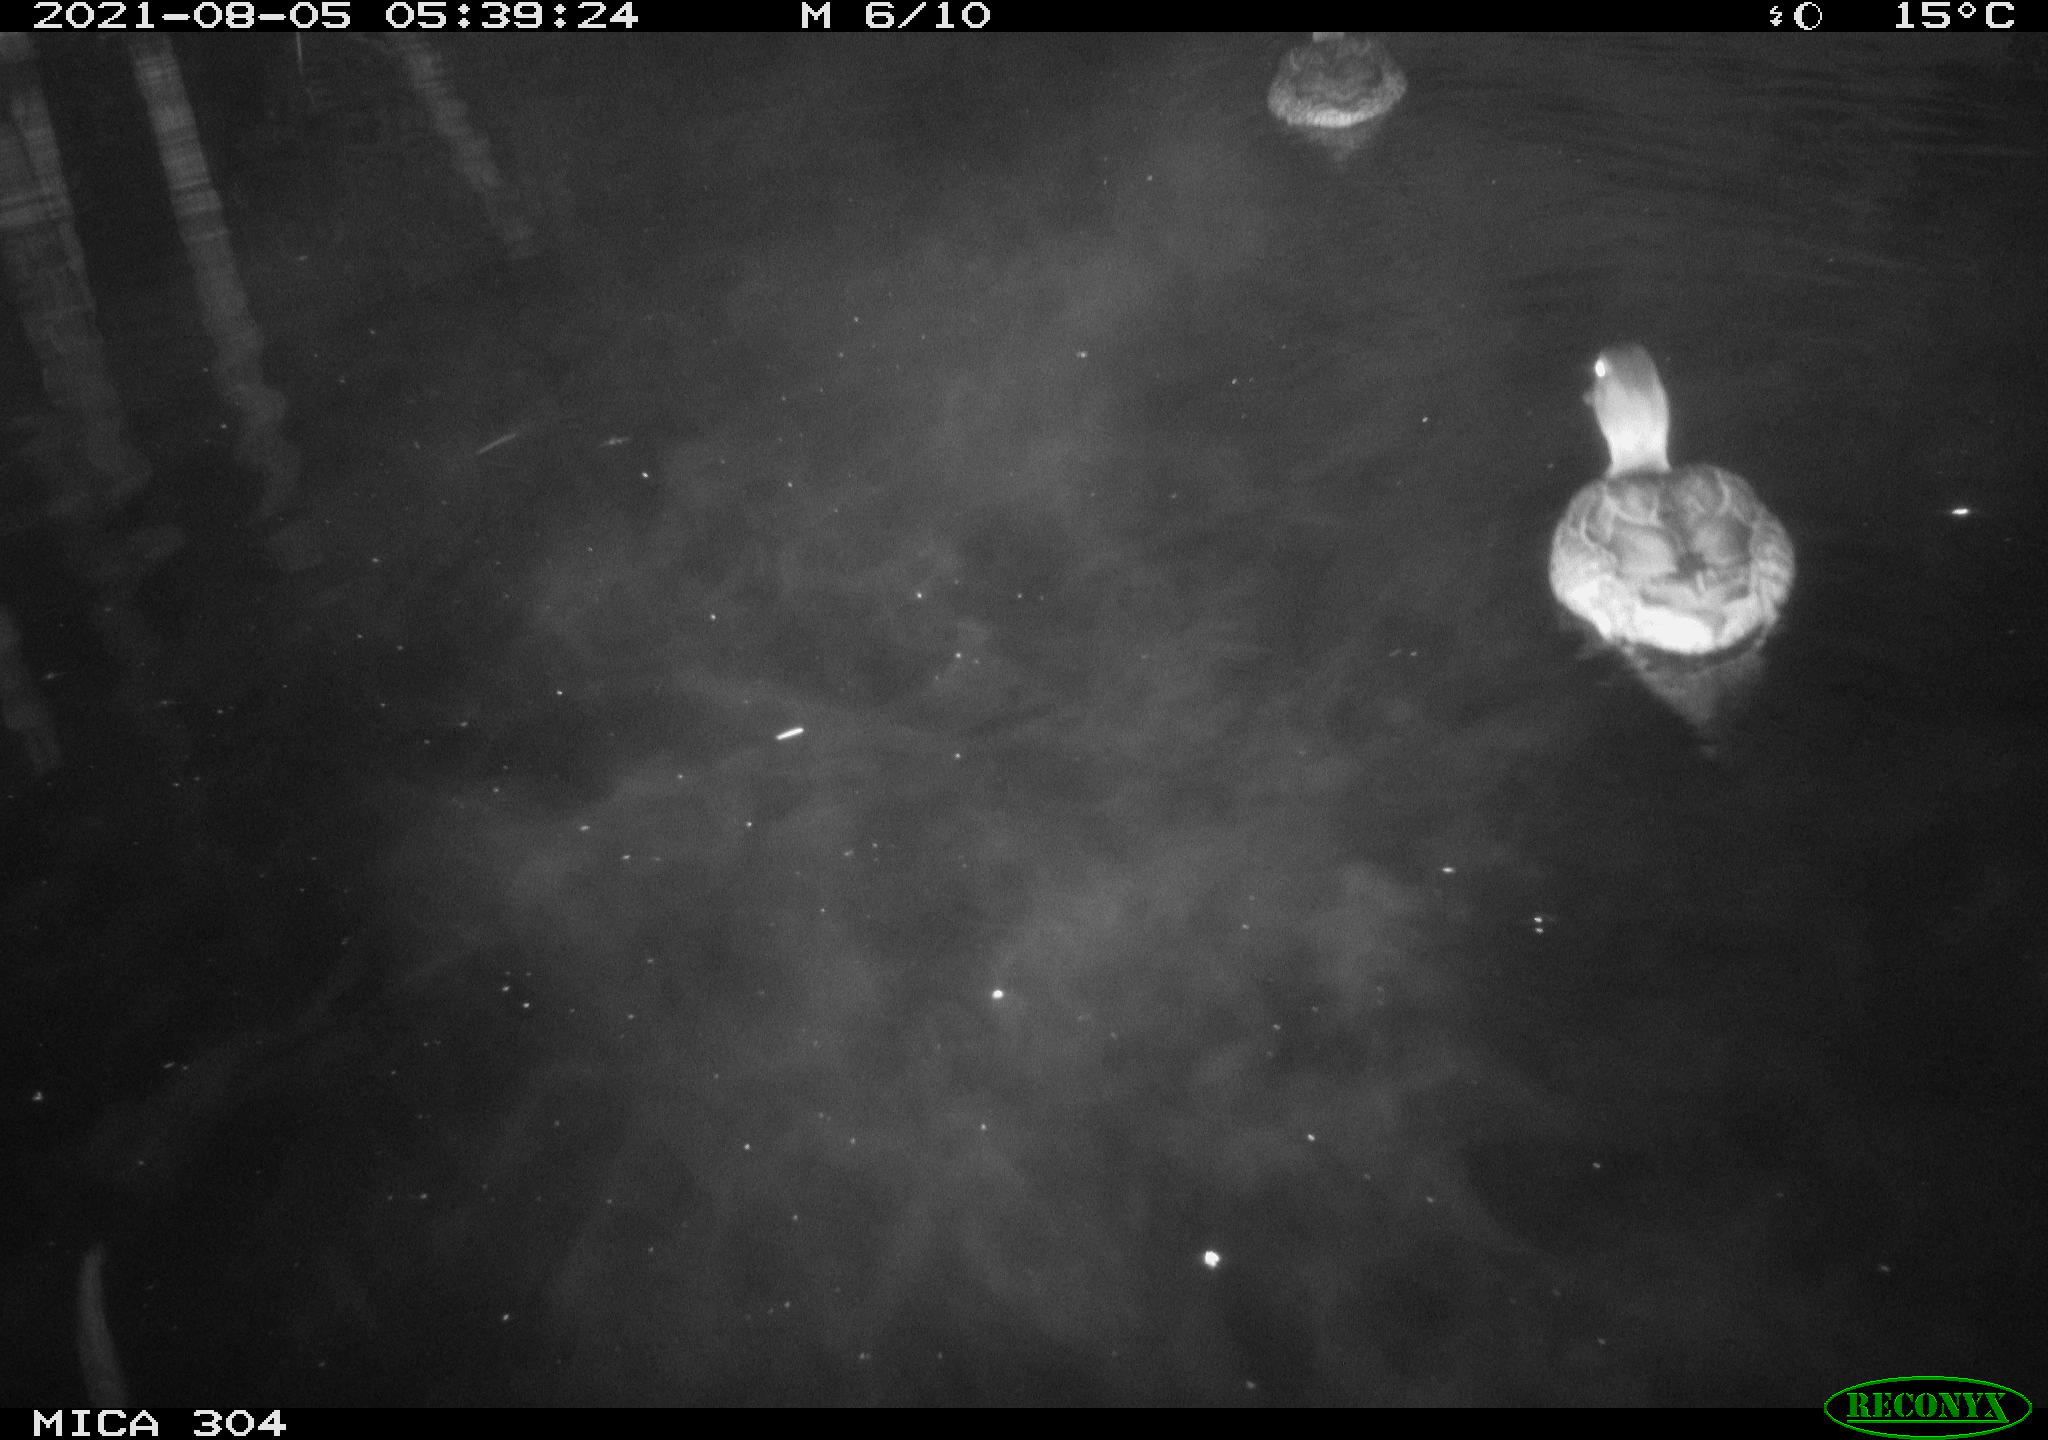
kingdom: Animalia
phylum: Chordata
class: Aves
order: Anseriformes
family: Anatidae
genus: Anas
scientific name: Anas platyrhynchos
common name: Mallard
